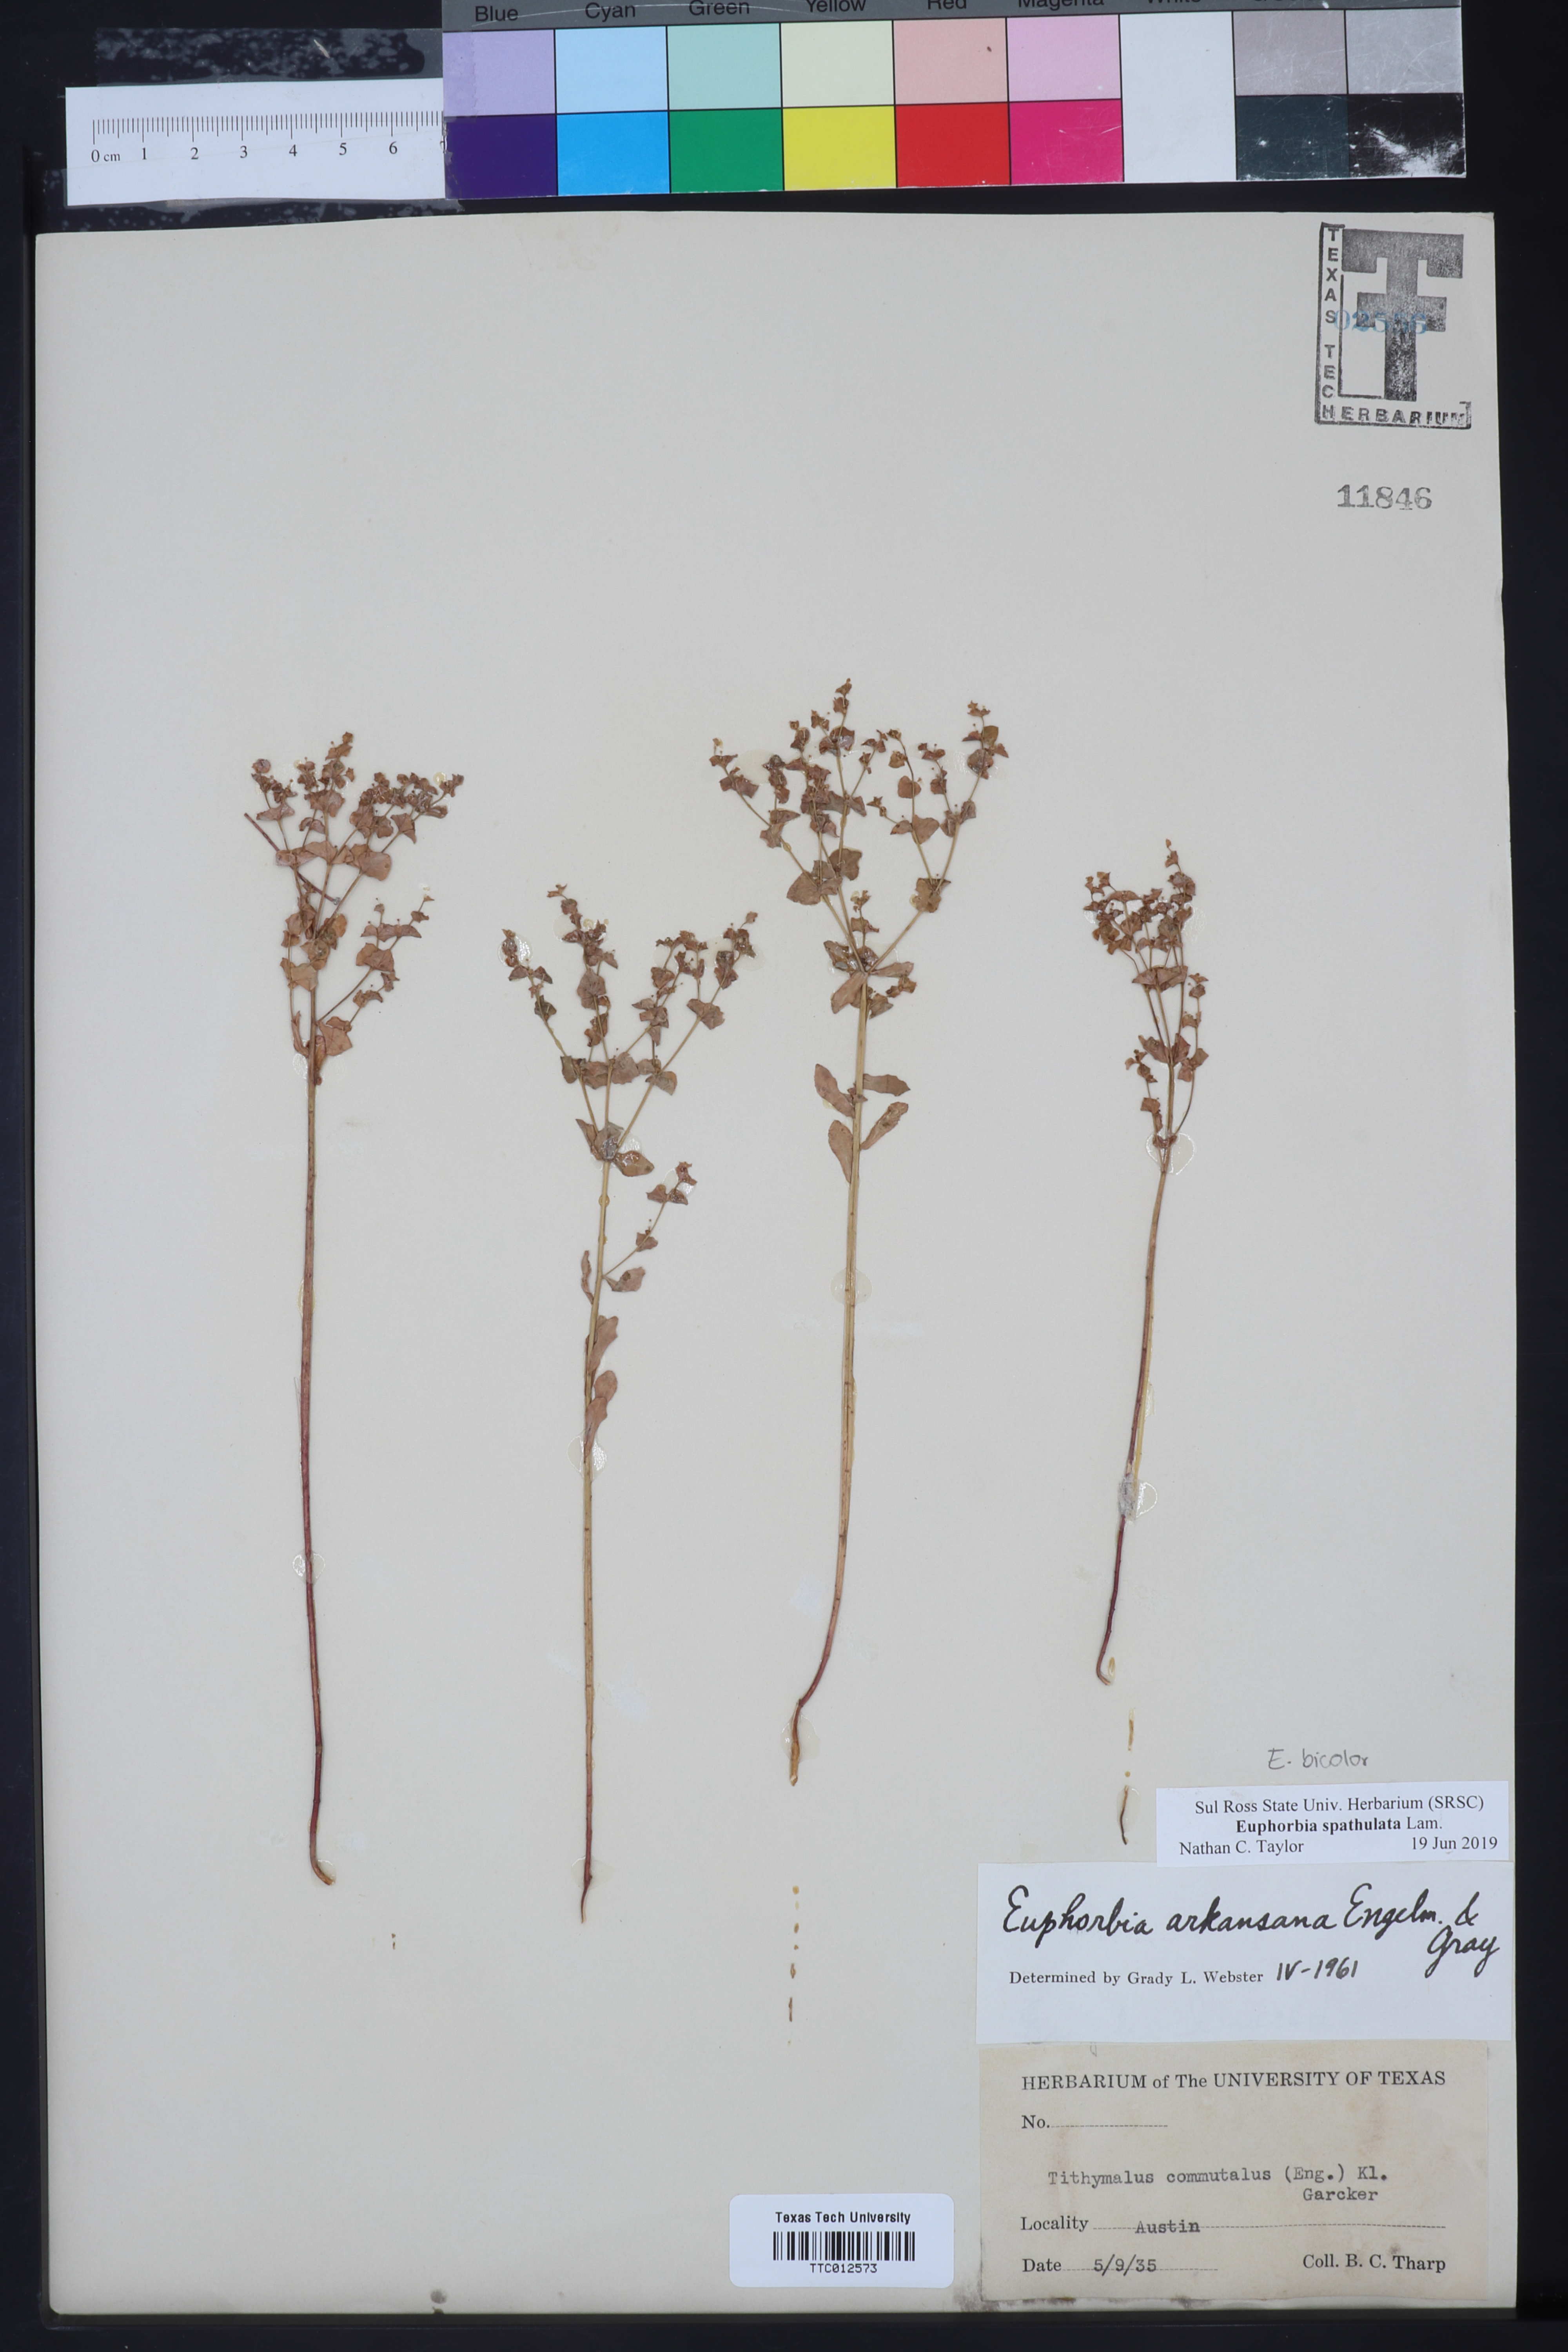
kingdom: Plantae
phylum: Tracheophyta
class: Magnoliopsida
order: Malpighiales
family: Euphorbiaceae
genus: Euphorbia
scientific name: Euphorbia spathulata
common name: Blunt spurge
